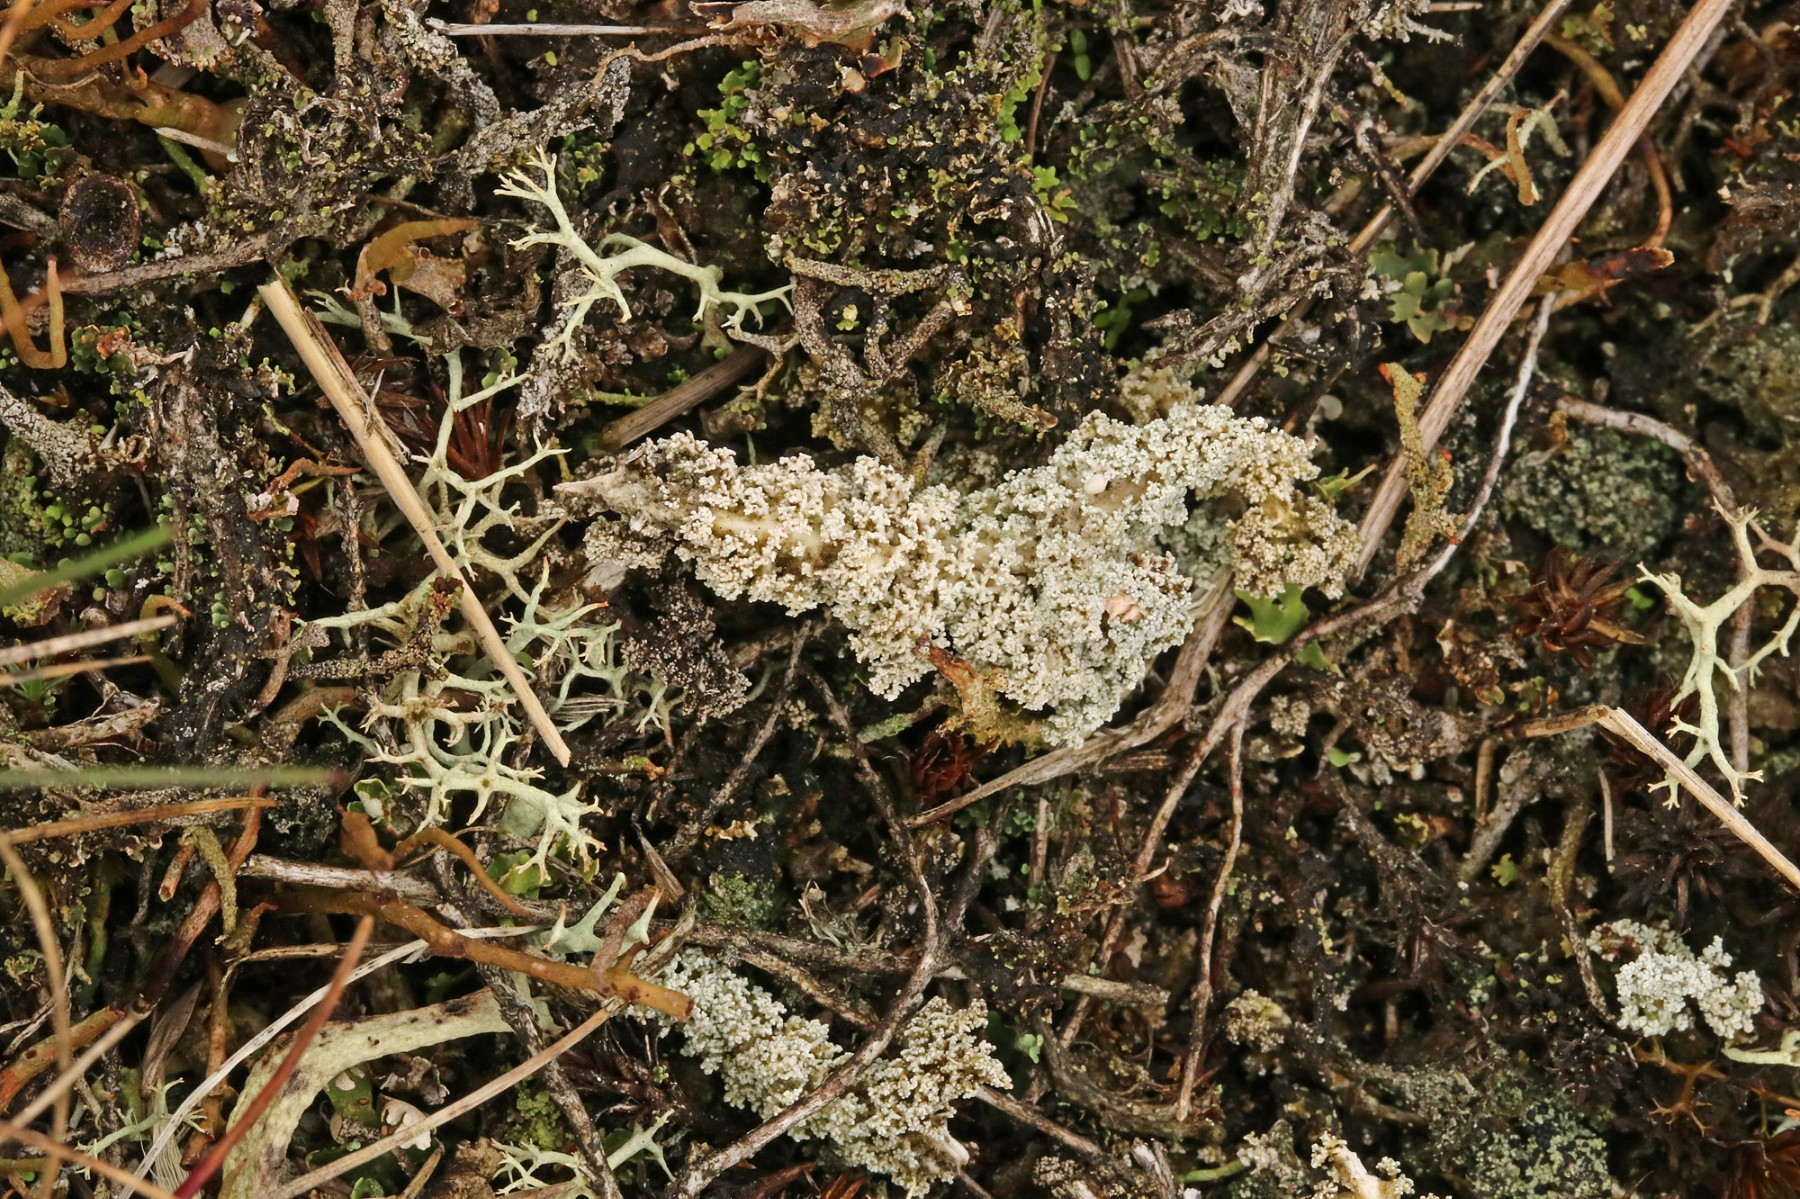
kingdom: Fungi
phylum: Ascomycota
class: Lecanoromycetes
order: Lecanorales
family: Stereocaulaceae
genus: Stereocaulon
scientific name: Stereocaulon saxatile
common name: klit-korallav
